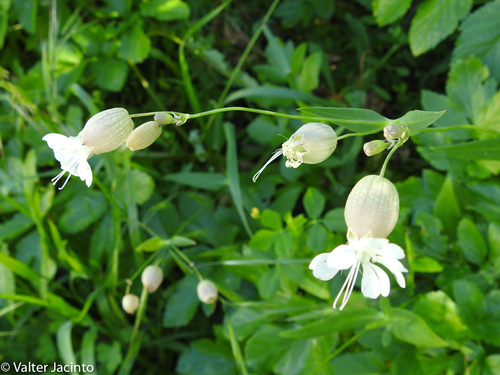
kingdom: Plantae
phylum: Tracheophyta
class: Magnoliopsida
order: Caryophyllales
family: Caryophyllaceae
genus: Silene
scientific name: Silene vulgaris
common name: Bladder campion
